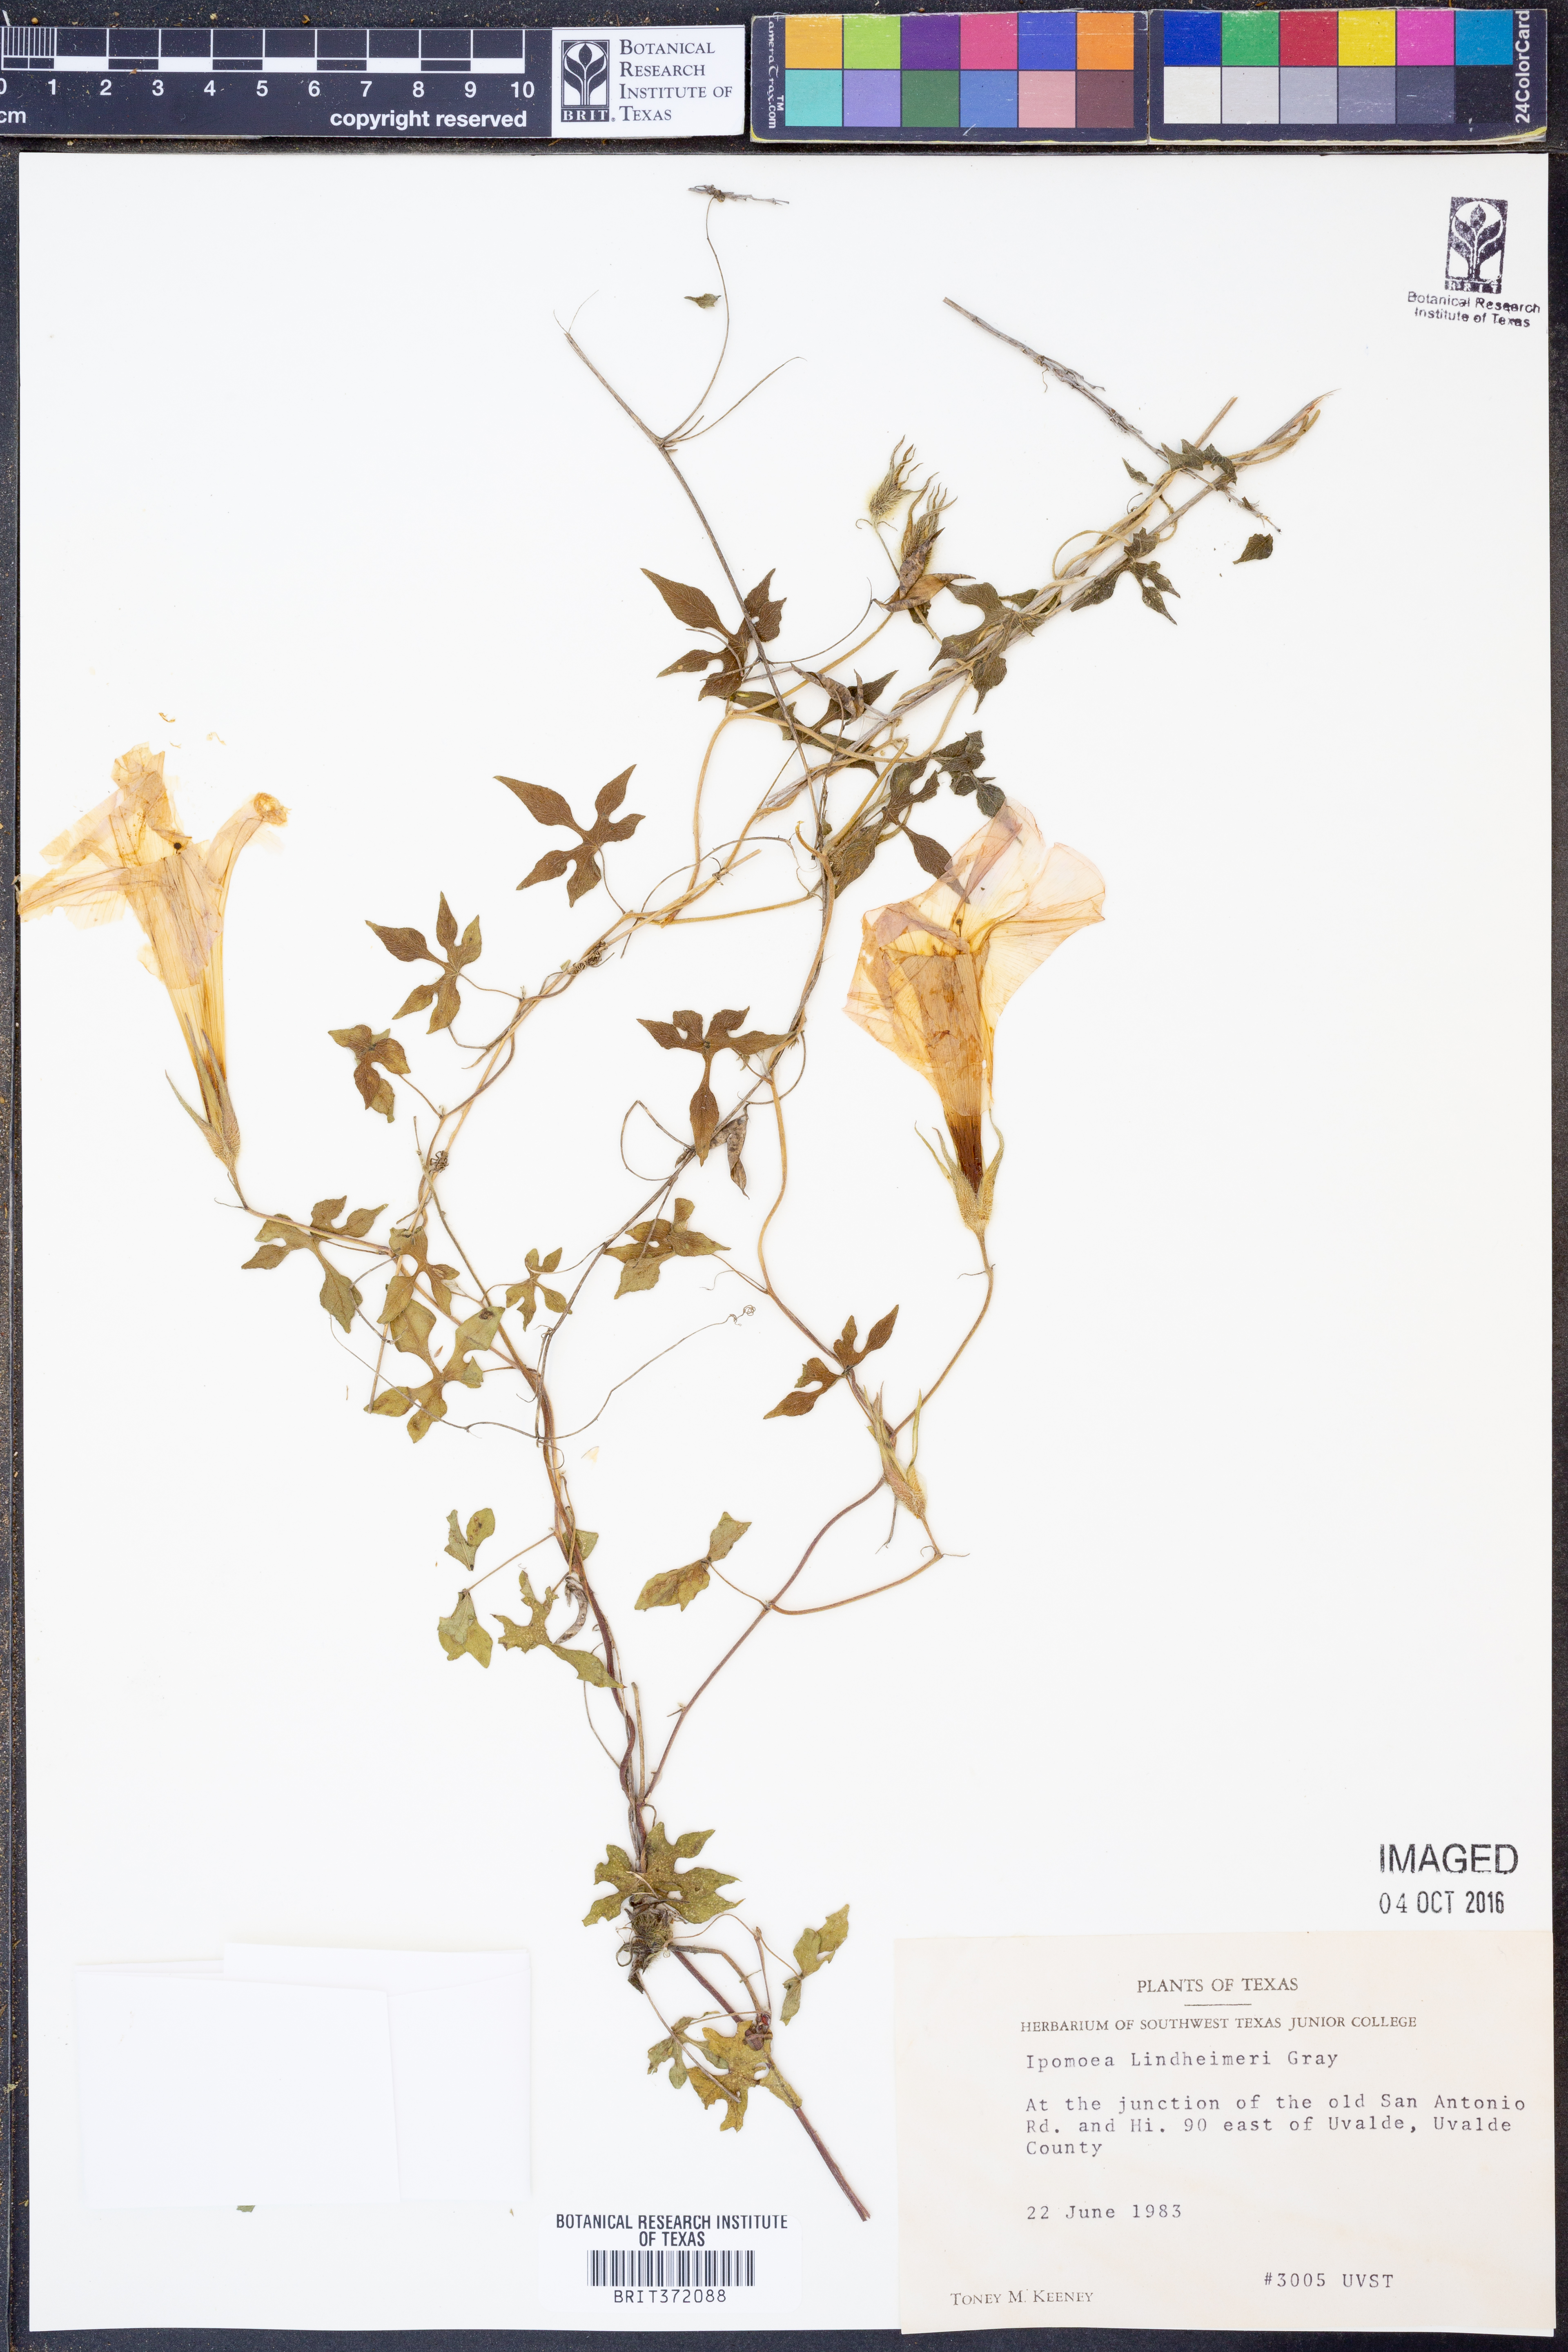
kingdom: Plantae
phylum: Tracheophyta
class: Magnoliopsida
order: Solanales
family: Convolvulaceae
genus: Ipomoea
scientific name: Ipomoea lindheimeri
